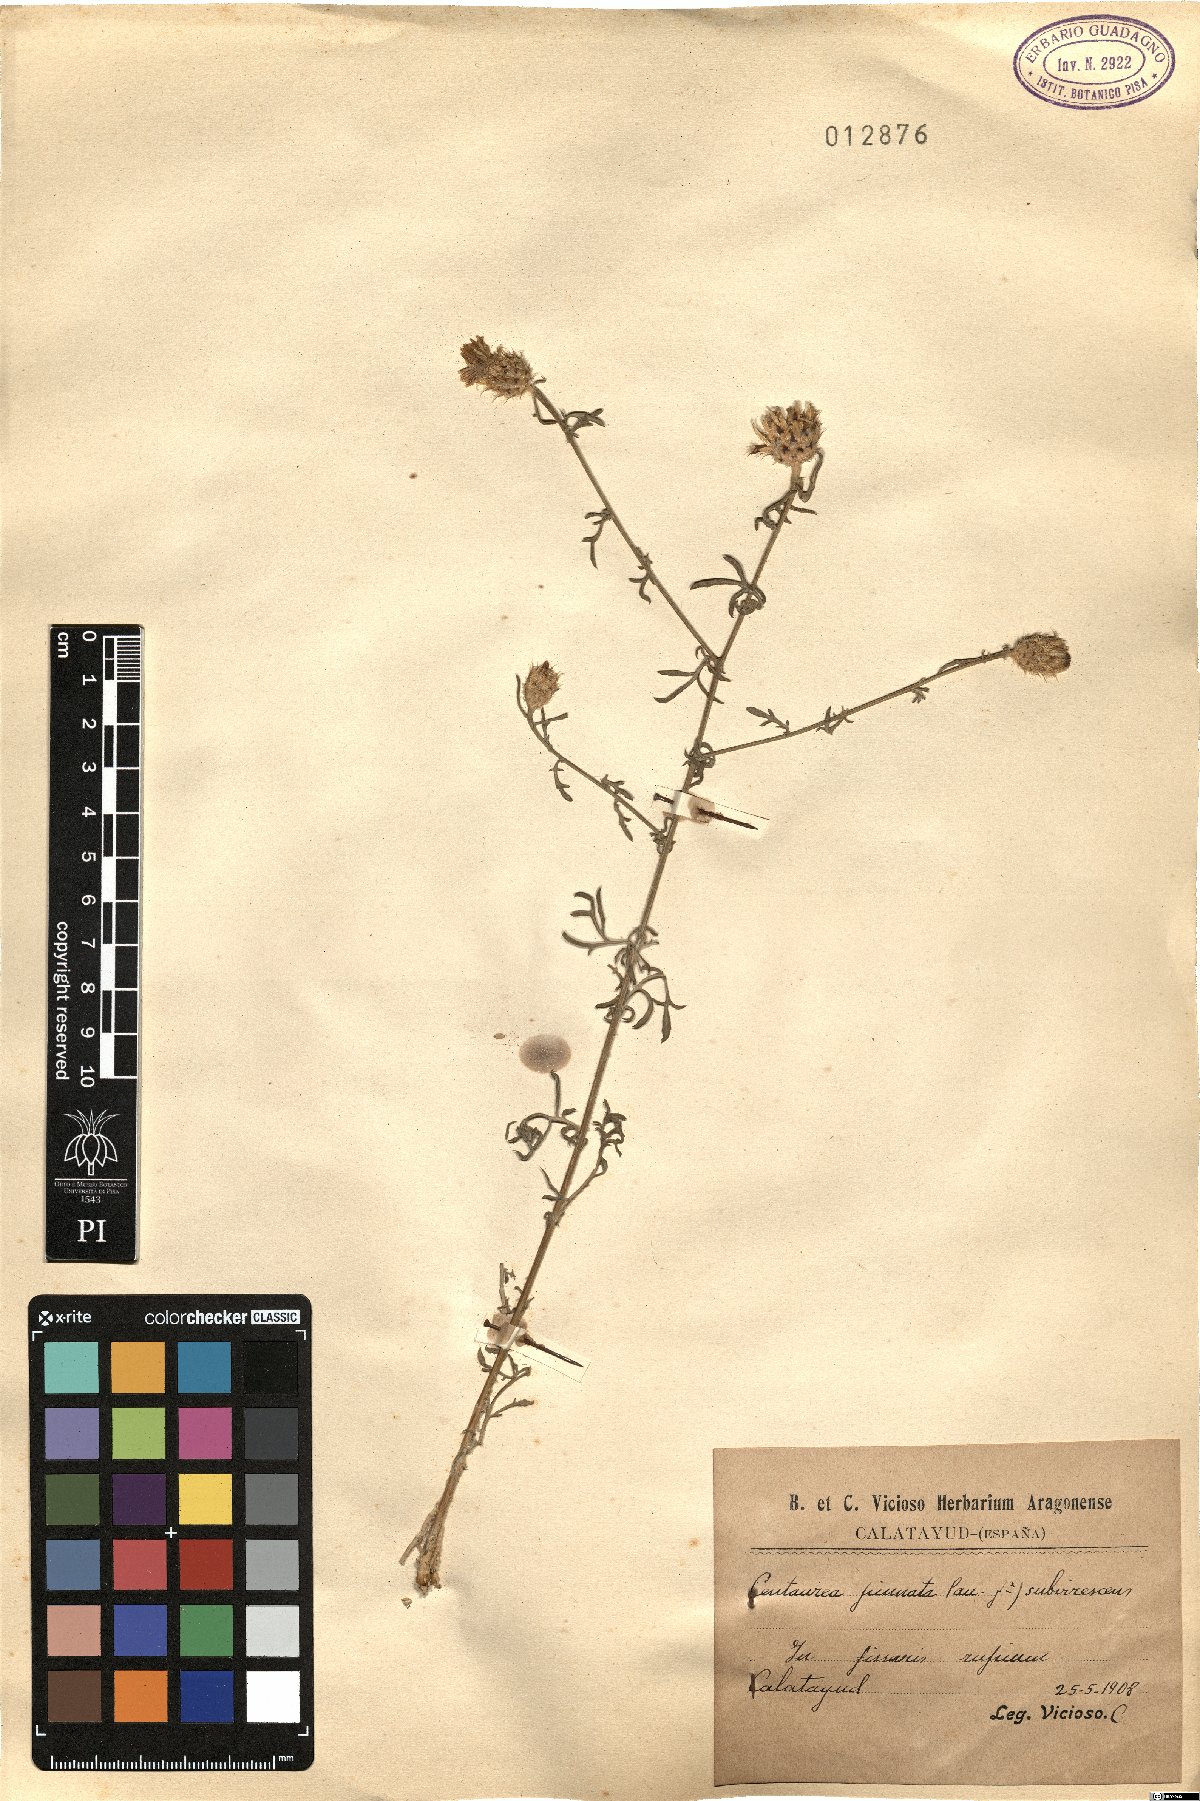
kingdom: Plantae
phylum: Tracheophyta
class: Magnoliopsida
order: Asterales
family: Asteraceae
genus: Centaurea
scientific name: Centaurea pinnata
